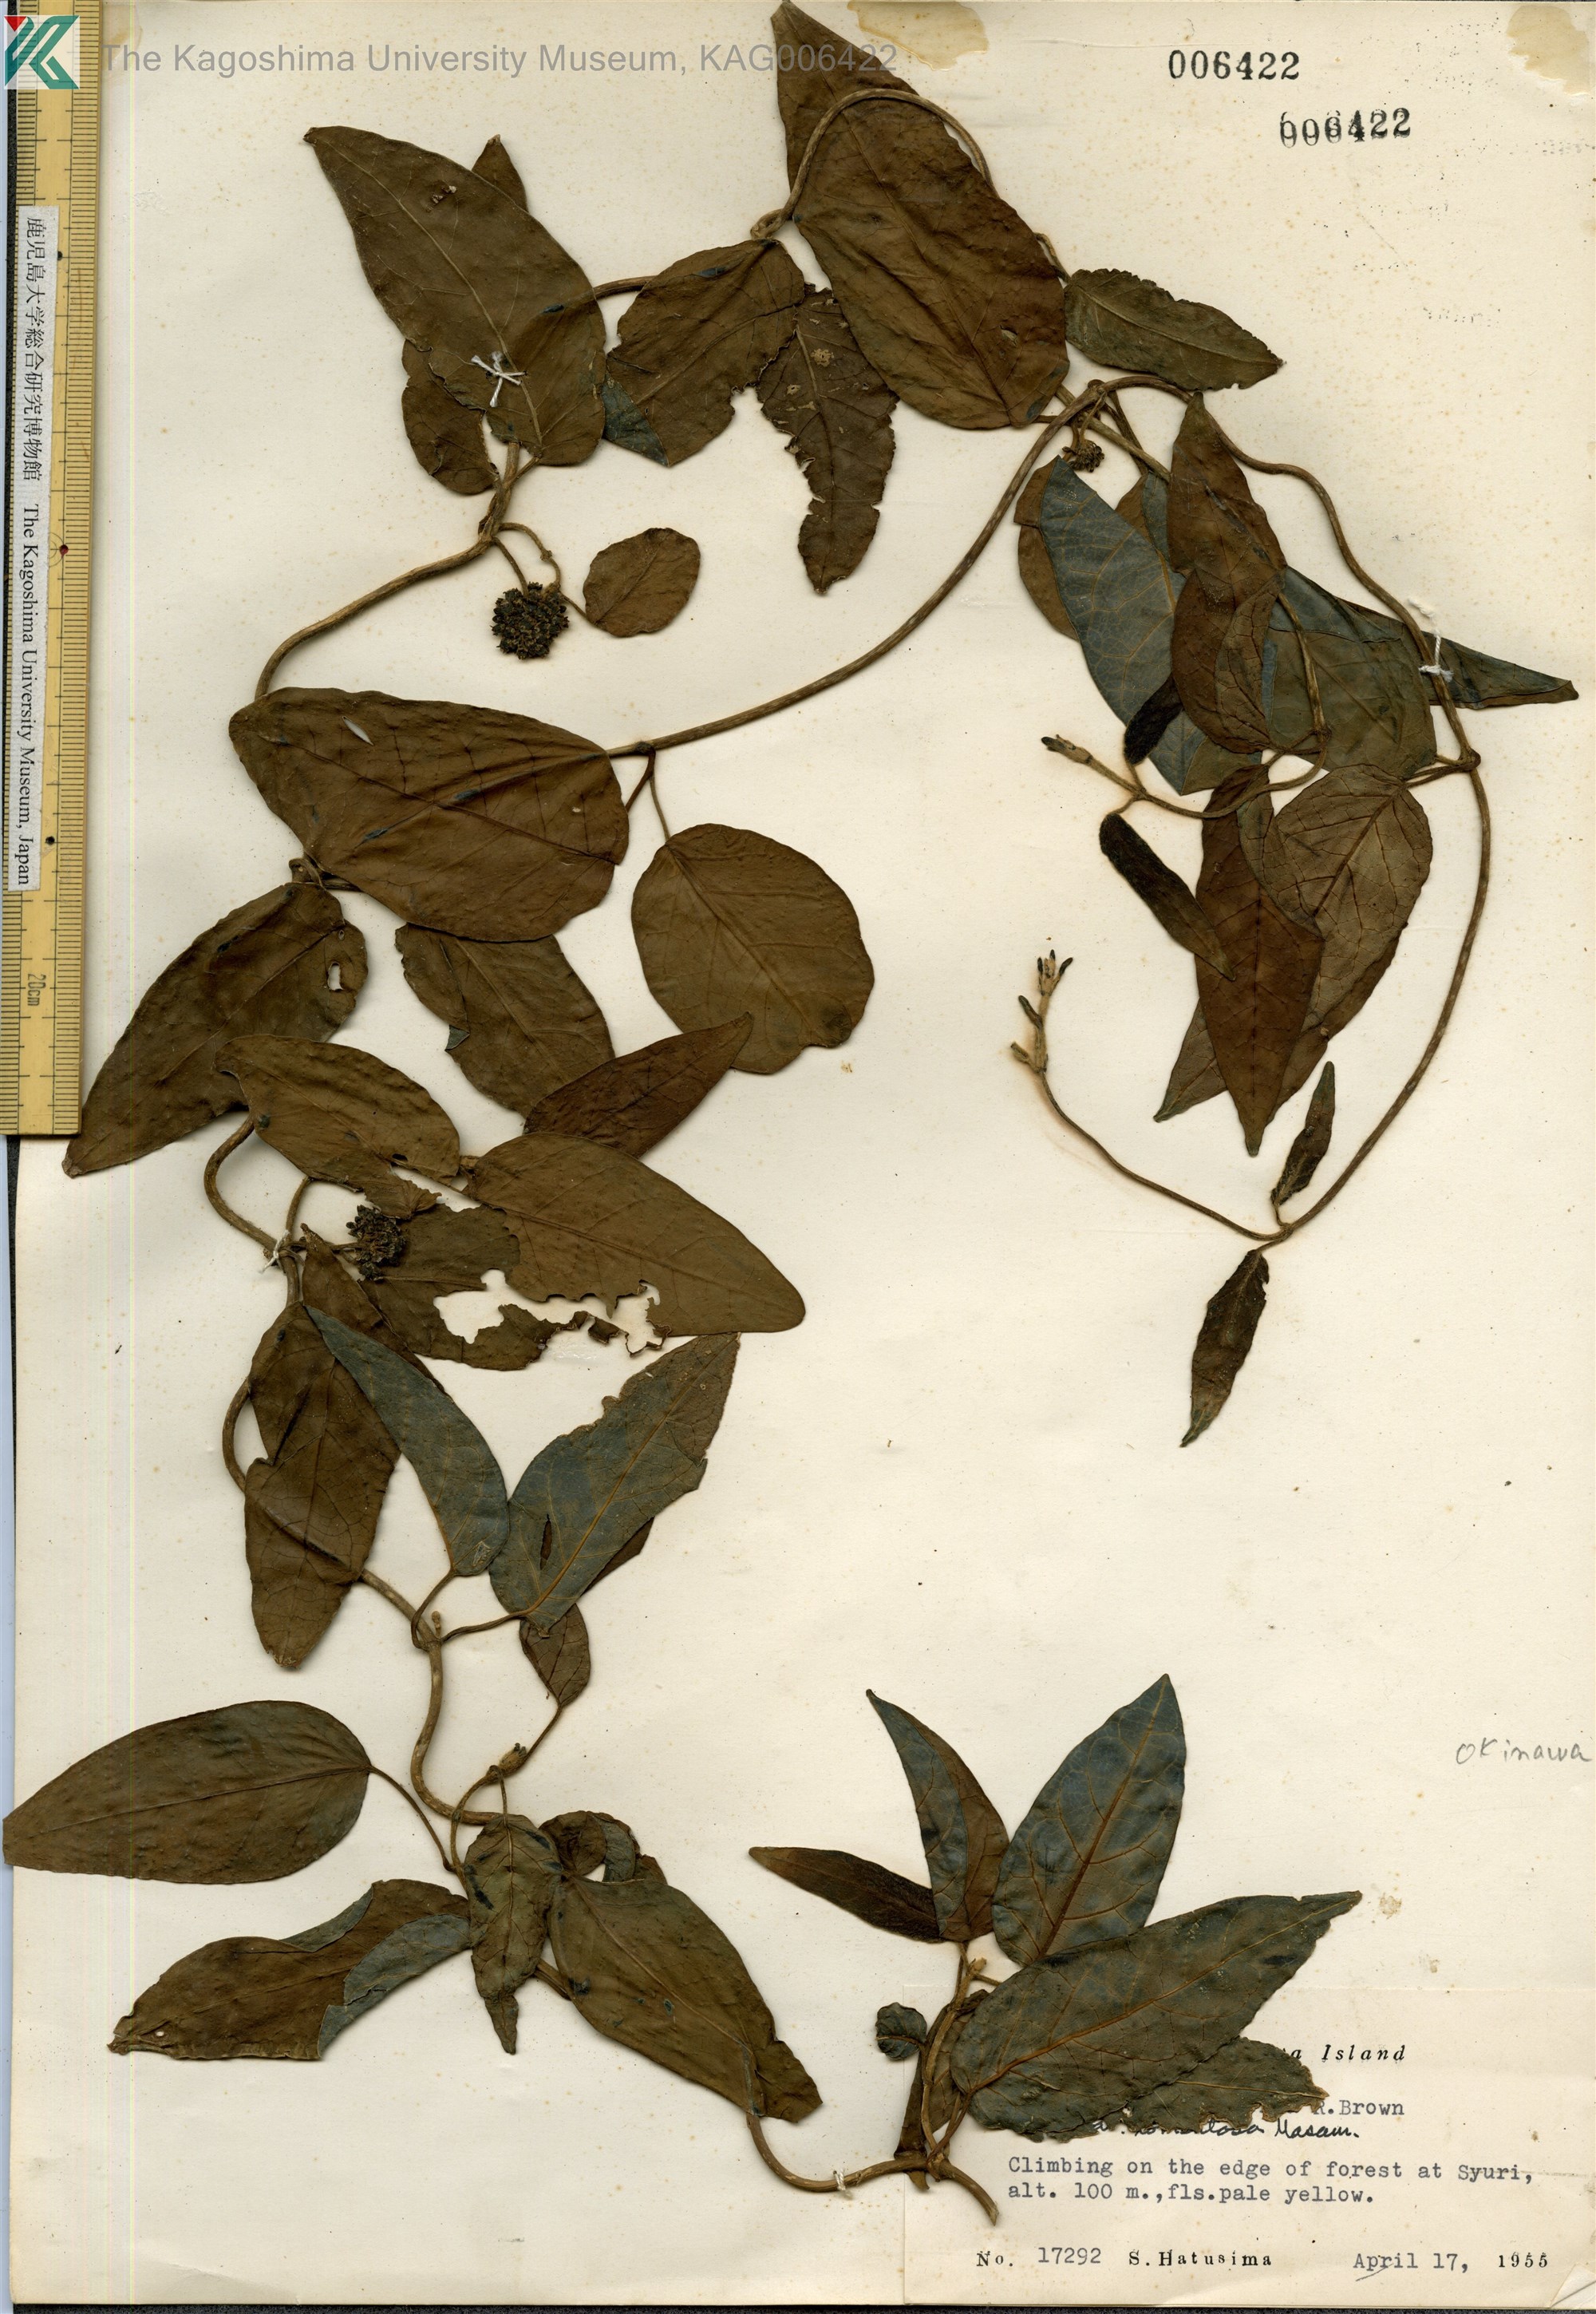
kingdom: Plantae
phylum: Tracheophyta
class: Magnoliopsida
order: Gentianales
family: Apocynaceae
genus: Marsdenia
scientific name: Marsdenia tinctoria
